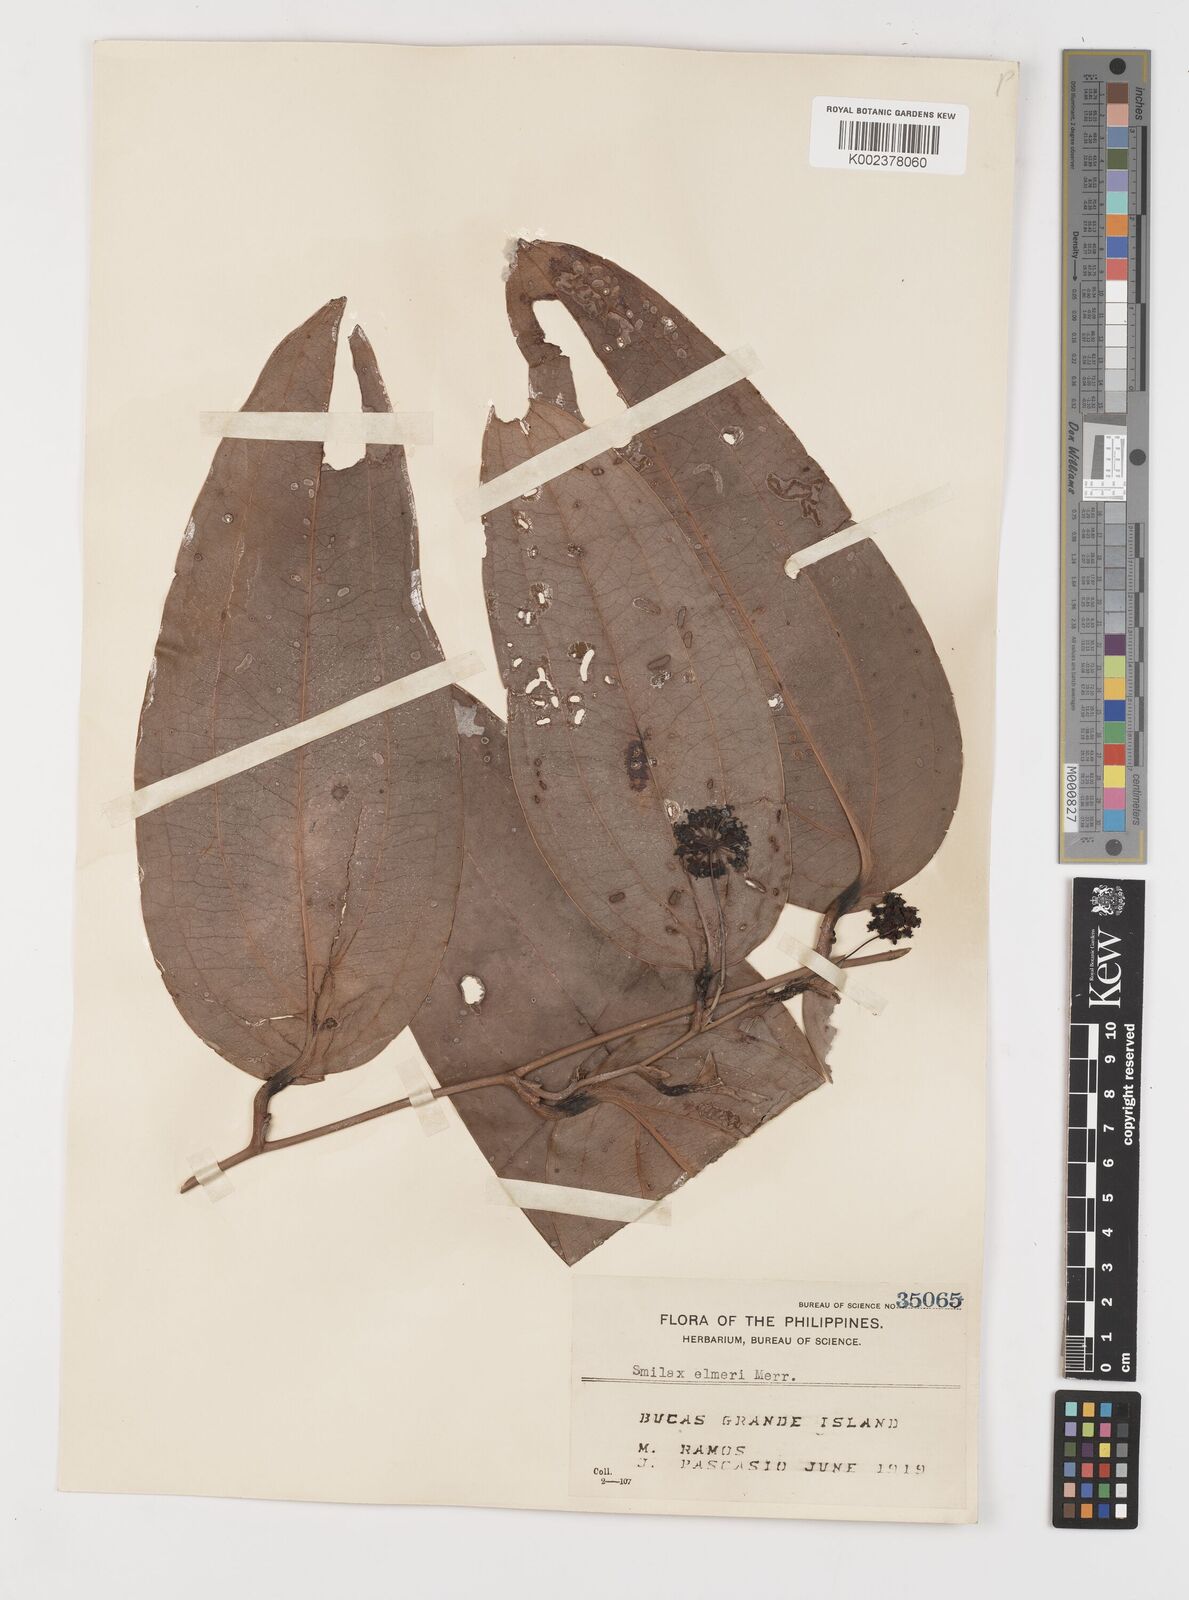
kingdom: Plantae
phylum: Tracheophyta
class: Liliopsida
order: Liliales
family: Smilacaceae
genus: Smilax
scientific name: Smilax elmeri
